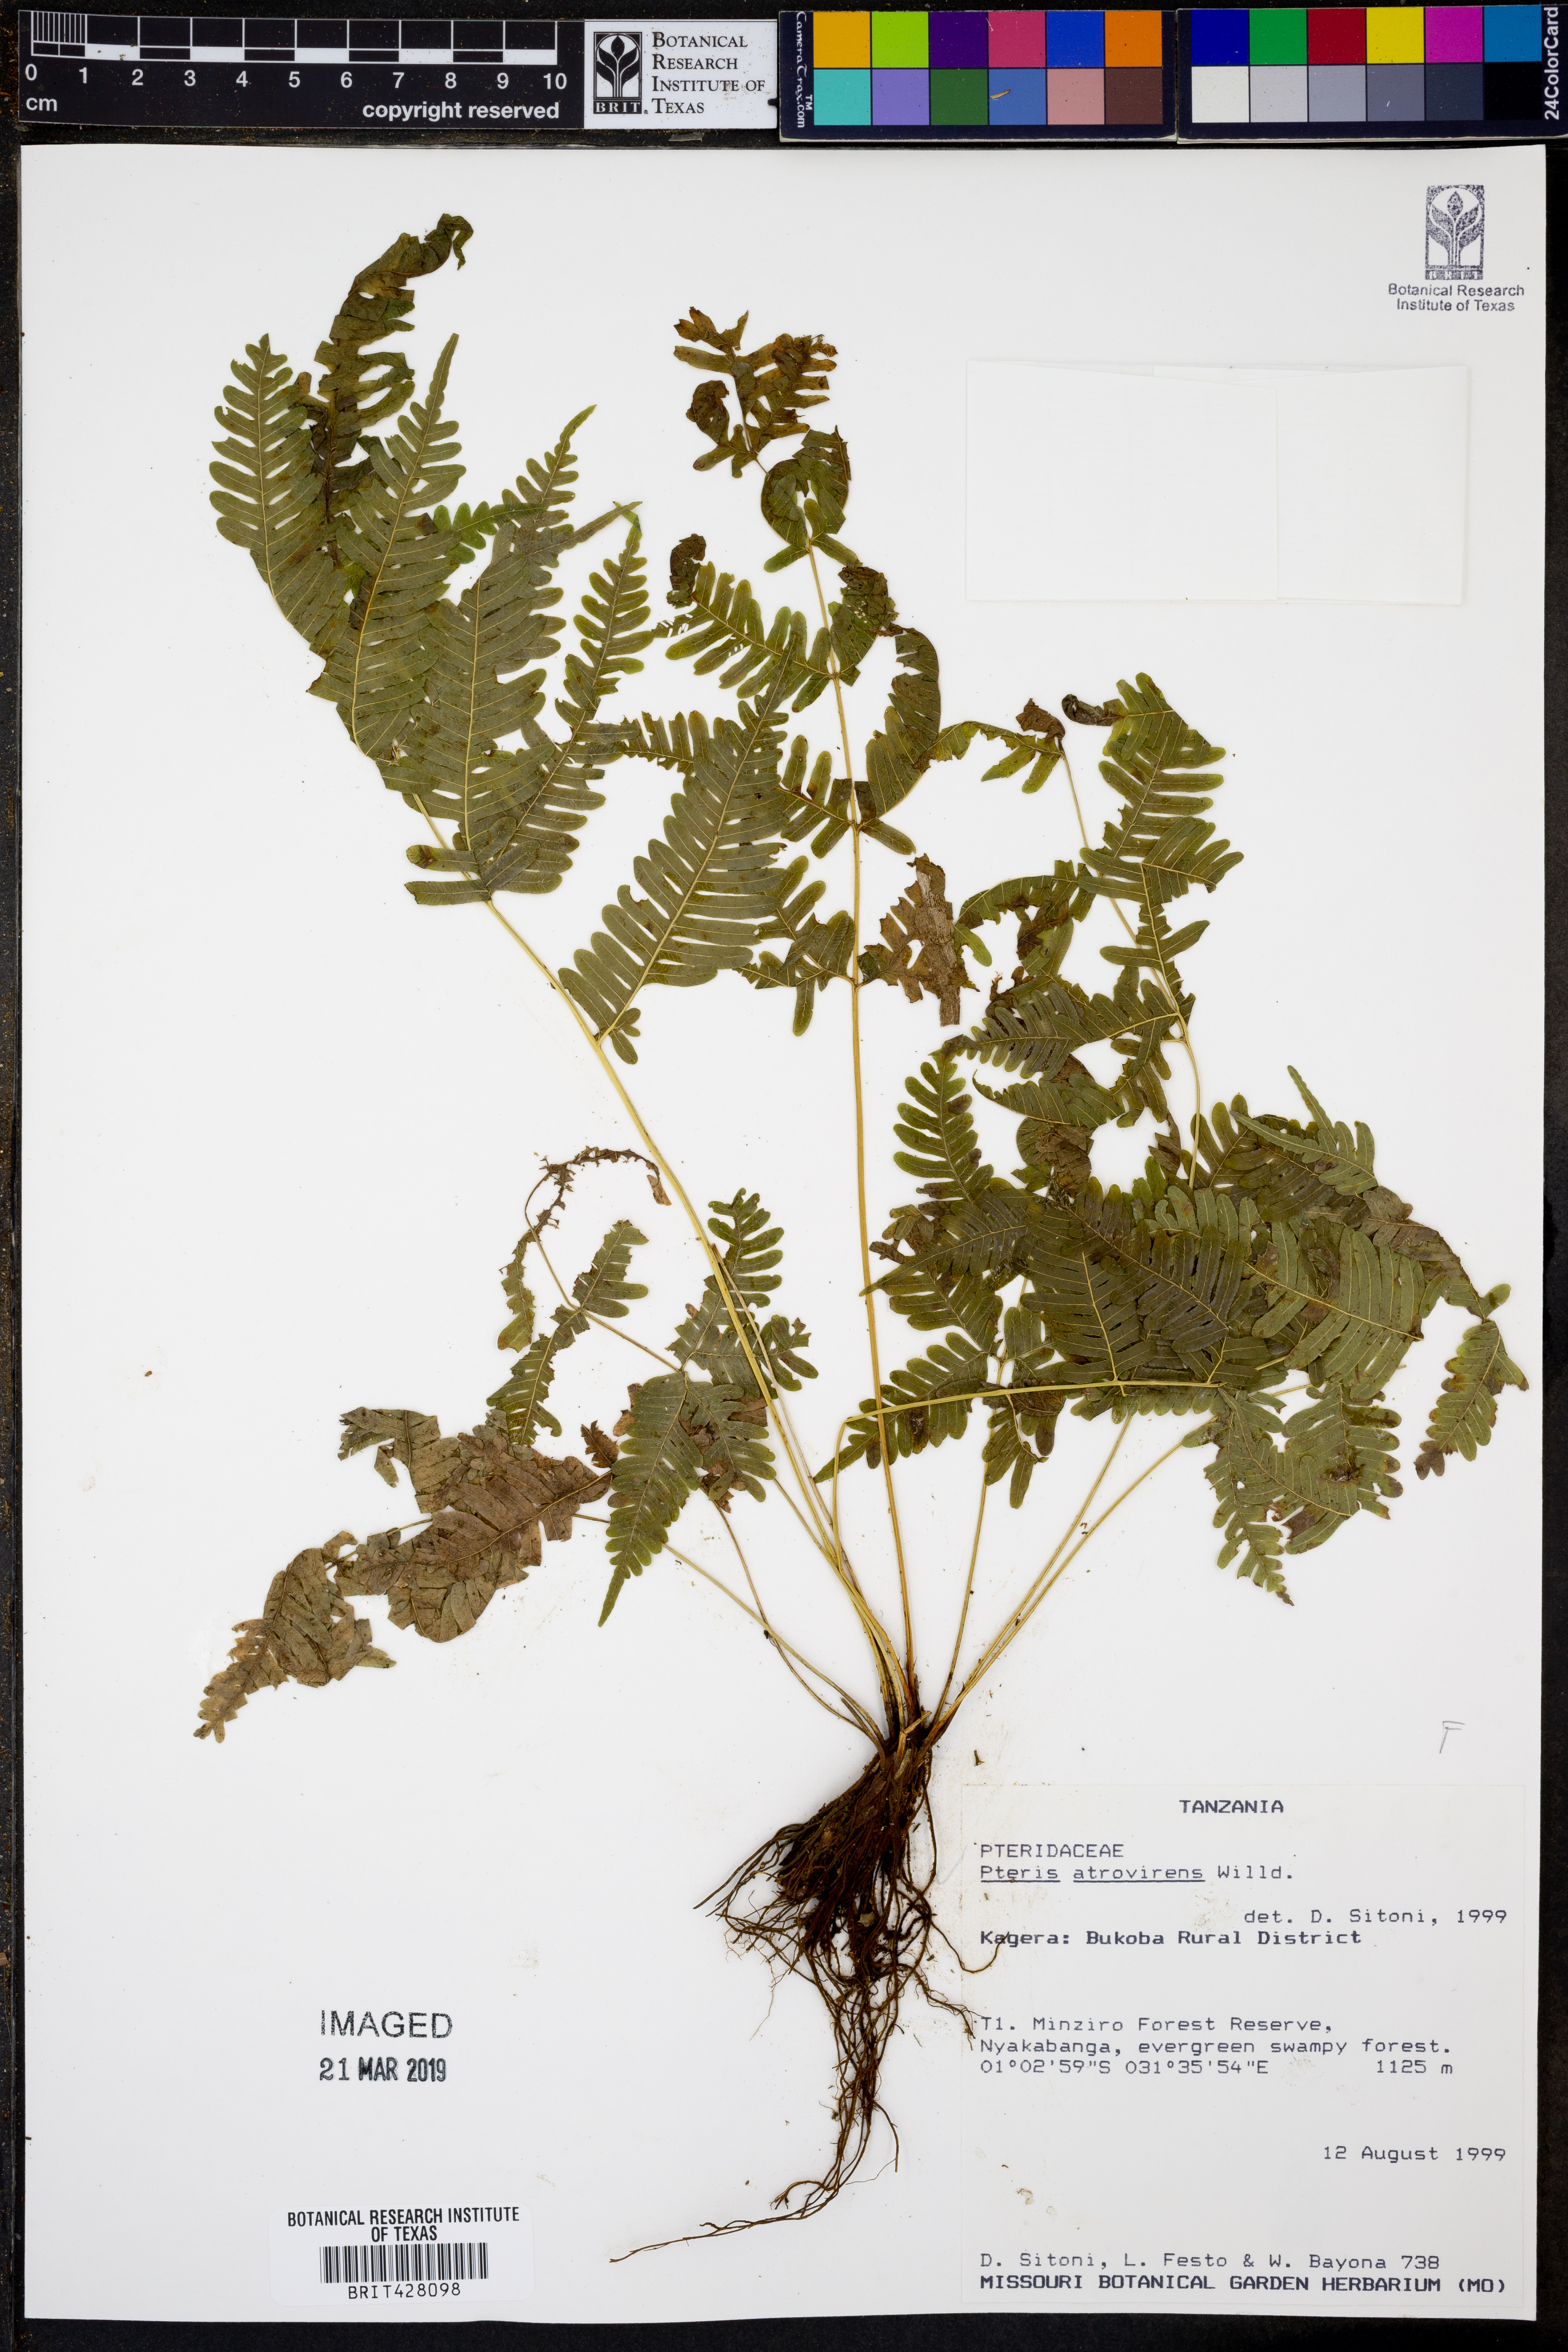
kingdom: Plantae
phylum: Tracheophyta
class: Polypodiopsida
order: Polypodiales
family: Pteridaceae
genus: Pteris
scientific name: Pteris atrovirens
